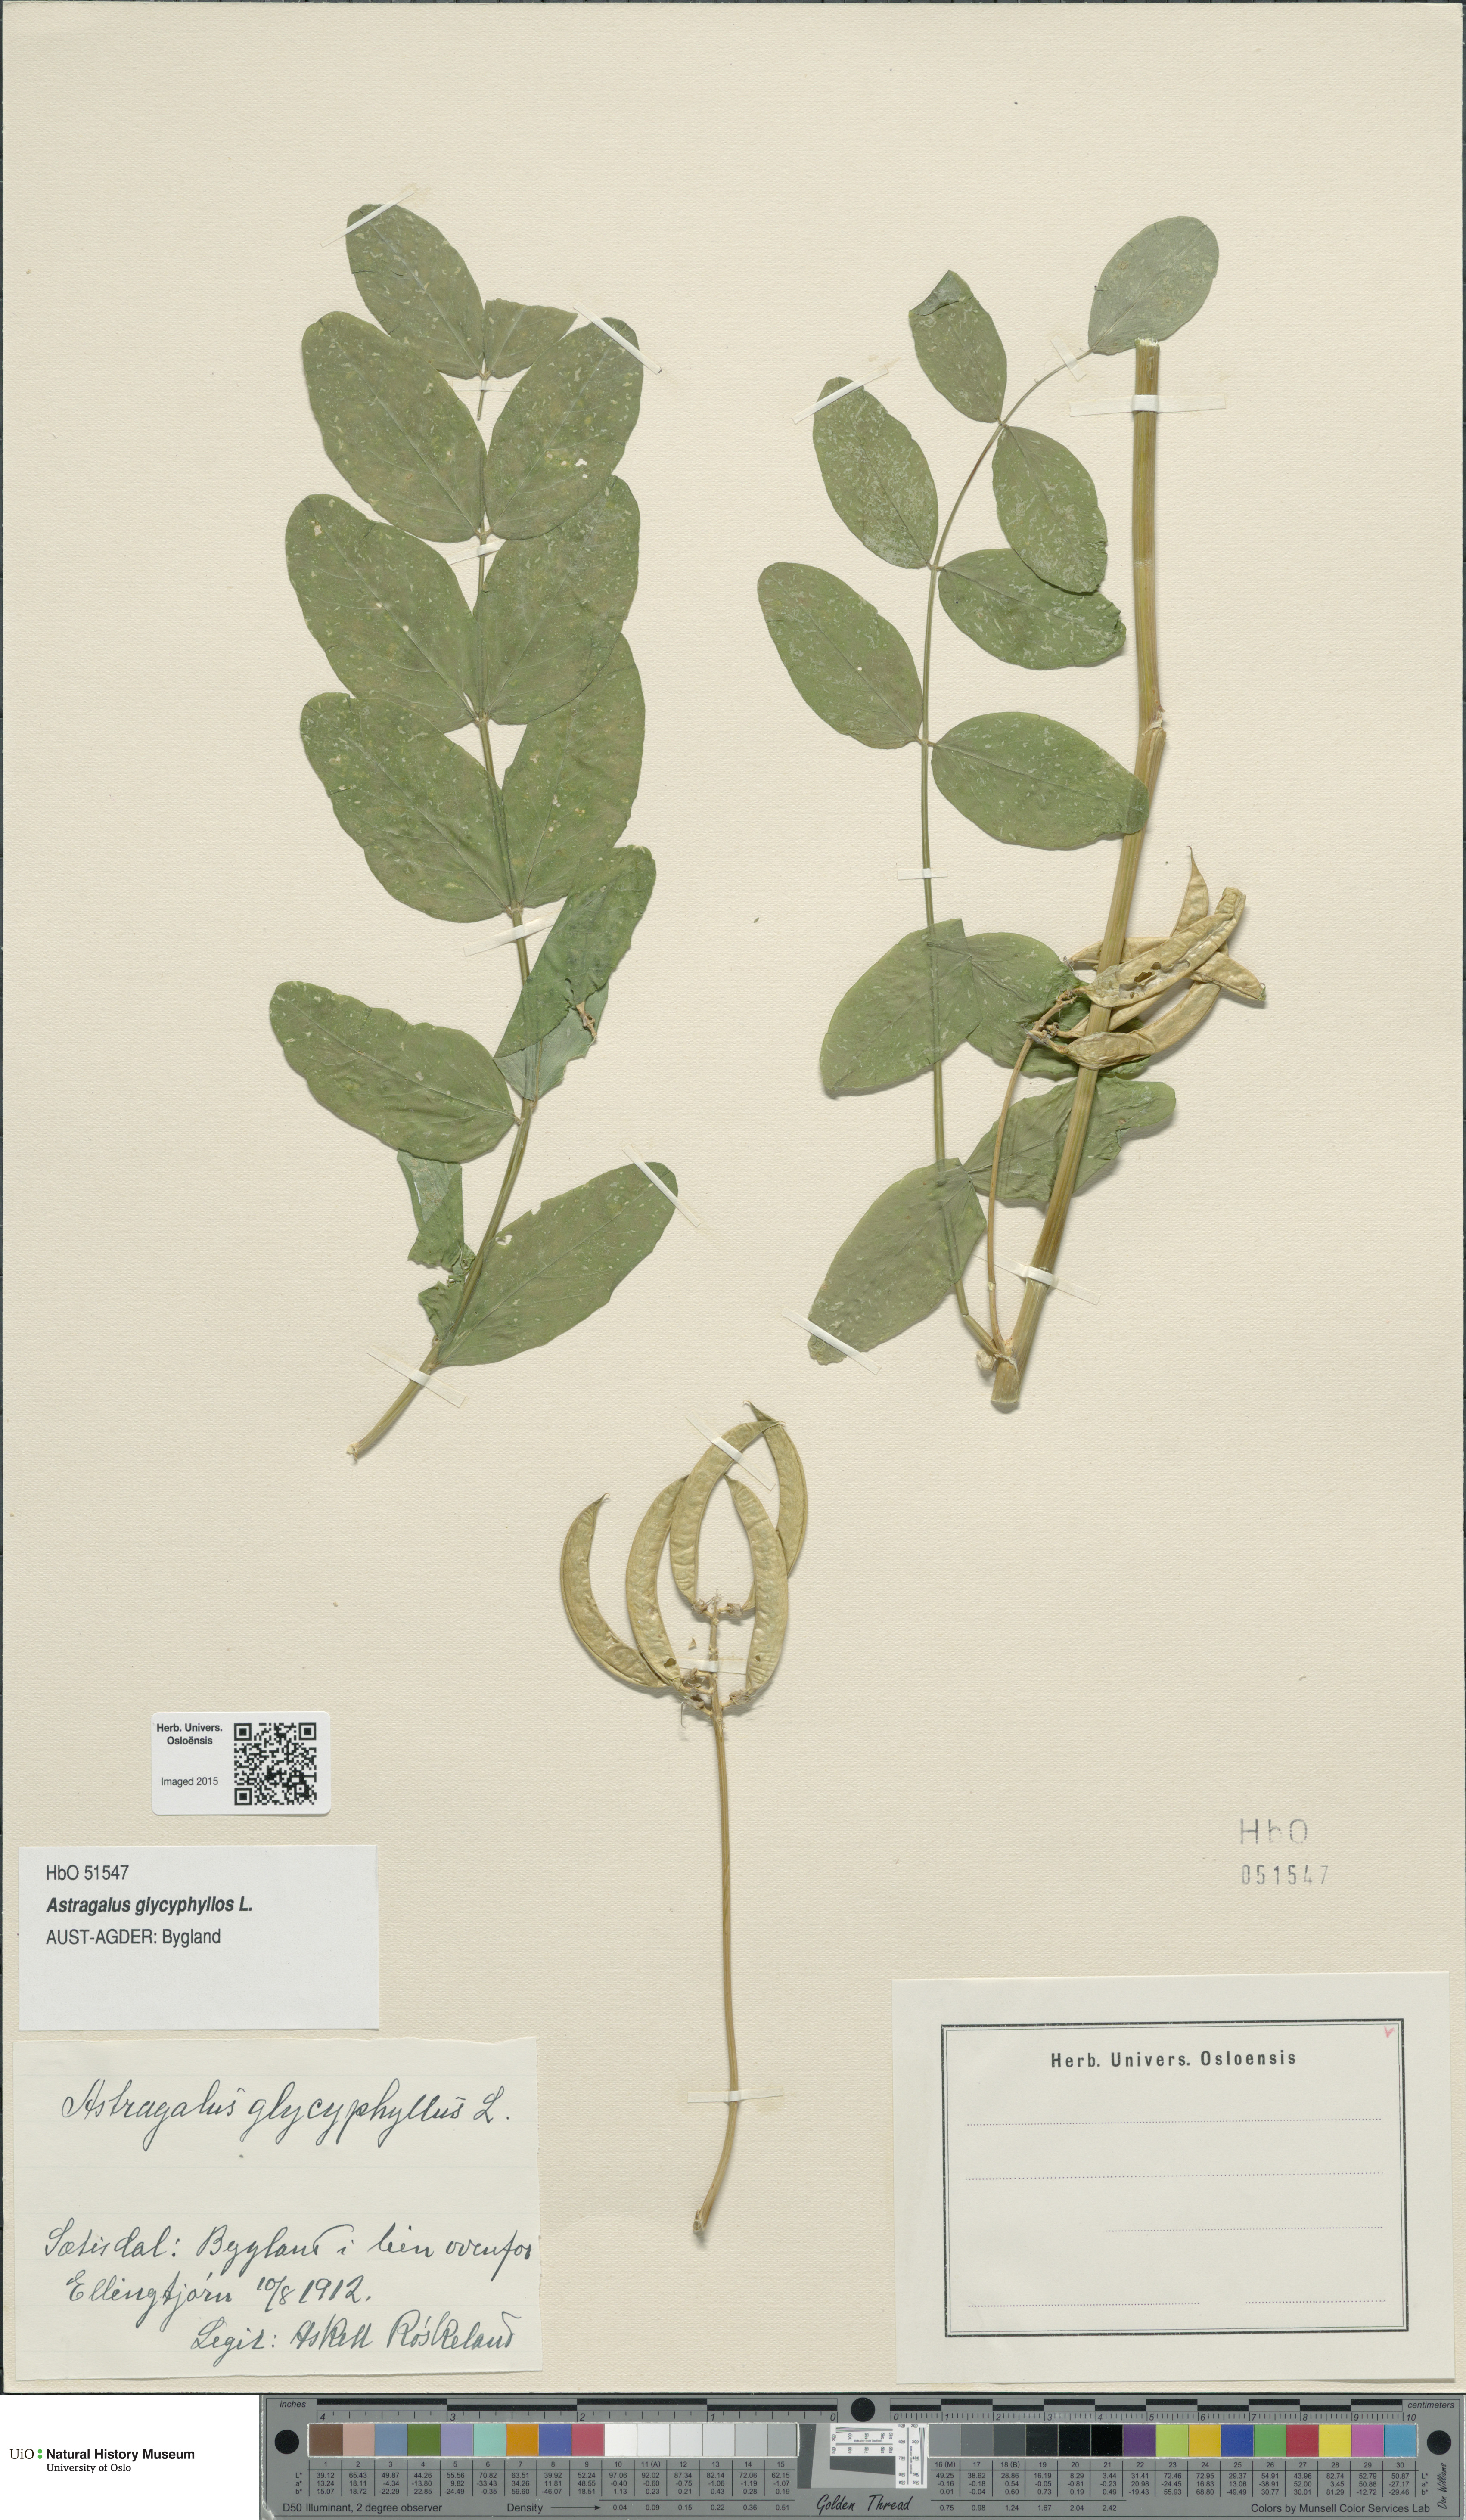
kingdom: Plantae
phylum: Tracheophyta
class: Magnoliopsida
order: Fabales
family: Fabaceae
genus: Astragalus
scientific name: Astragalus glycyphyllos
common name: Wild liquorice
